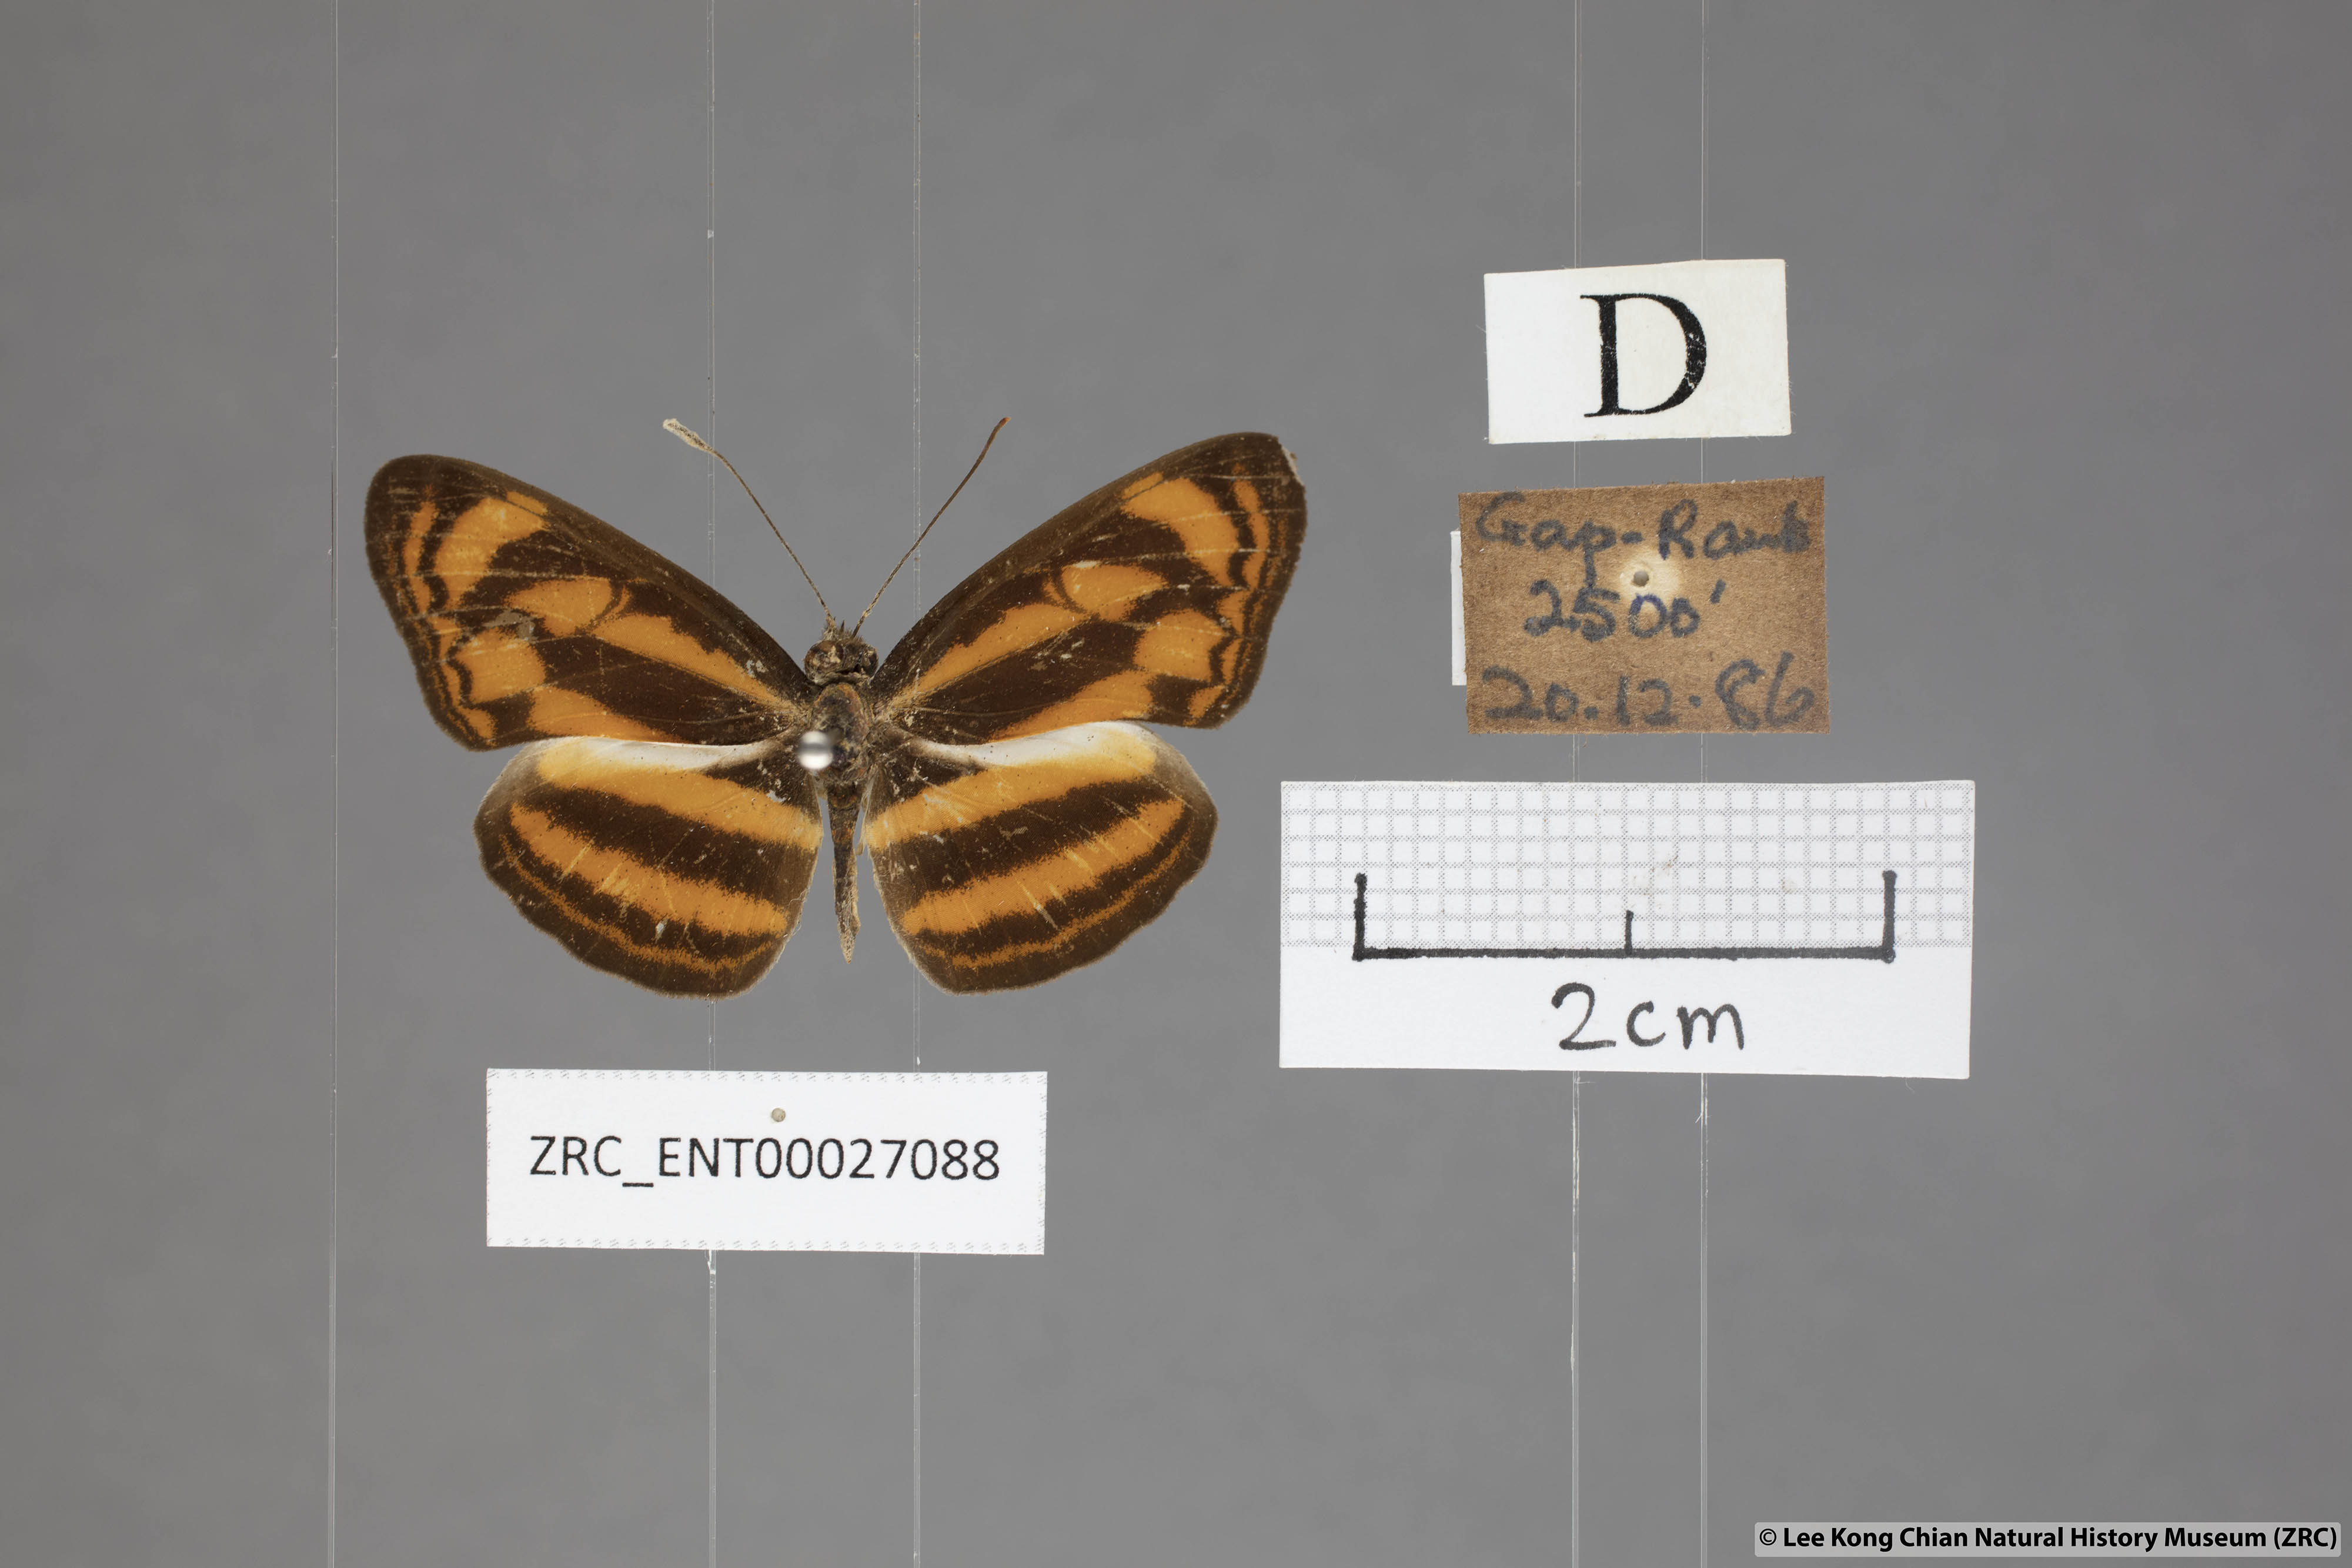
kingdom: Animalia
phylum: Arthropoda
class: Insecta
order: Lepidoptera
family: Nymphalidae
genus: Lasippa
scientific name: Lasippa tiga
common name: Malayan lascar
